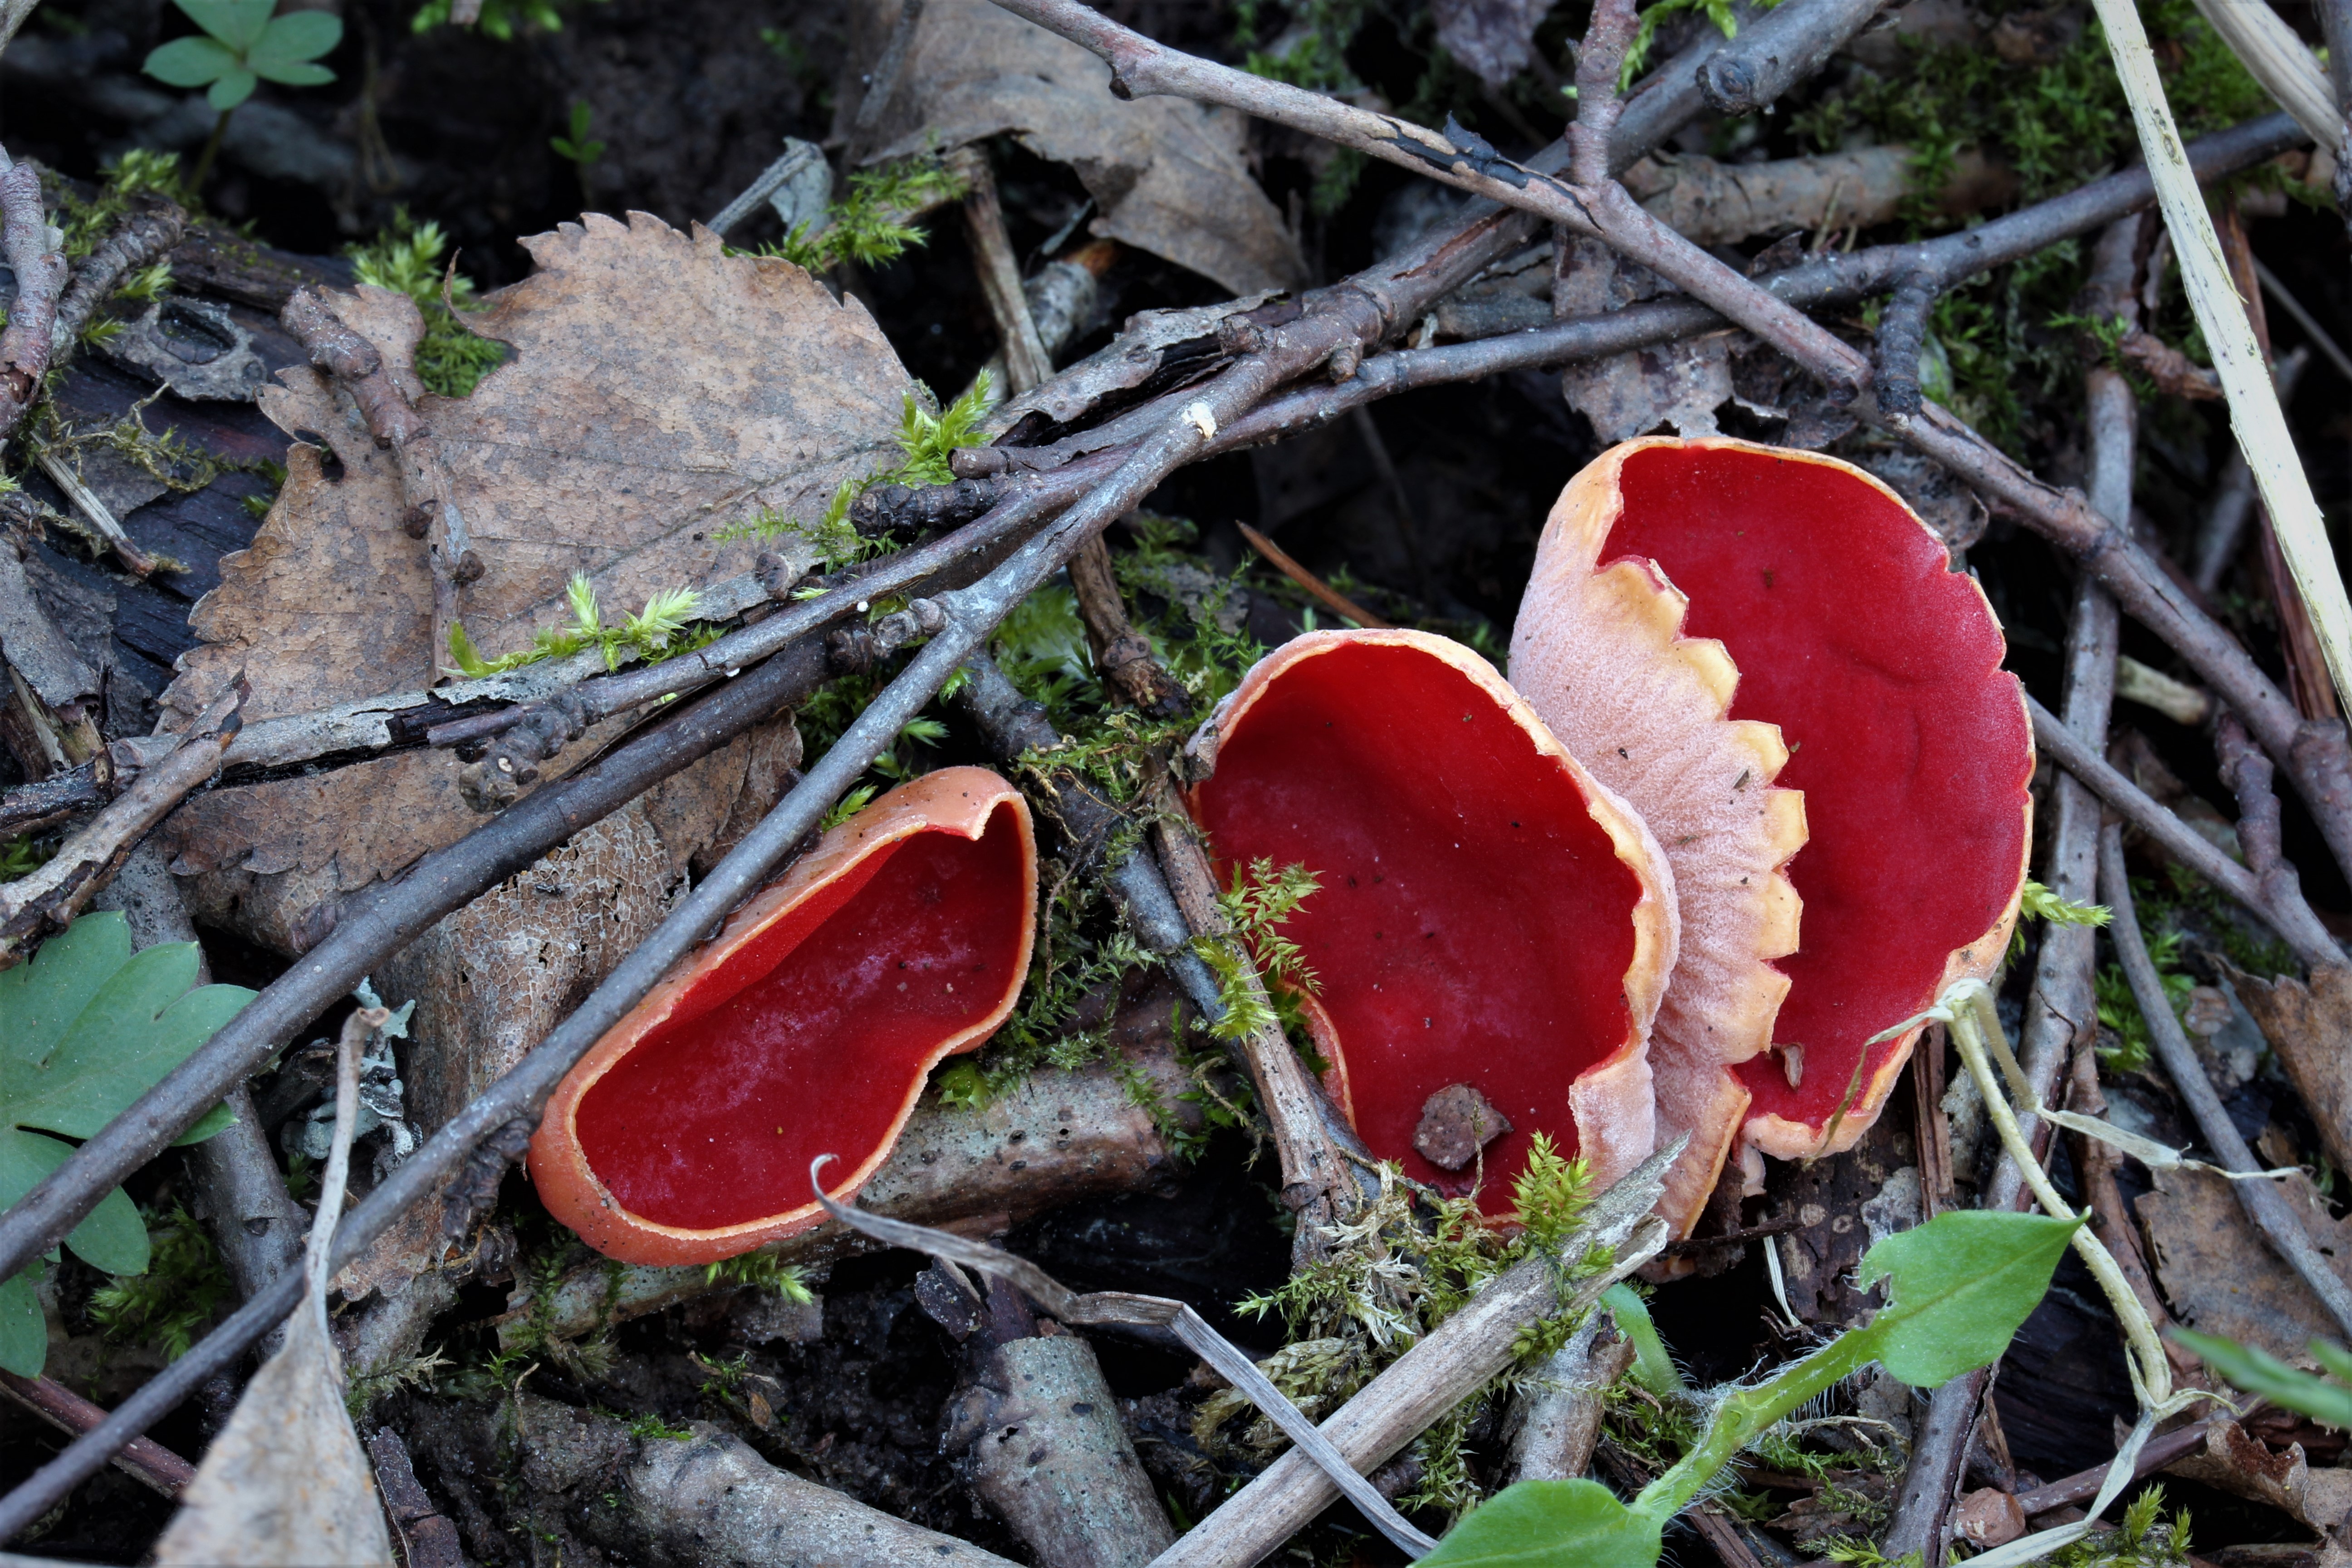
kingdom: Fungi
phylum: Ascomycota
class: Pezizomycetes
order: Pezizales
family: Sarcoscyphaceae
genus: Sarcoscypha
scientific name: Sarcoscypha austriaca
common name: Scarlet elfcup
